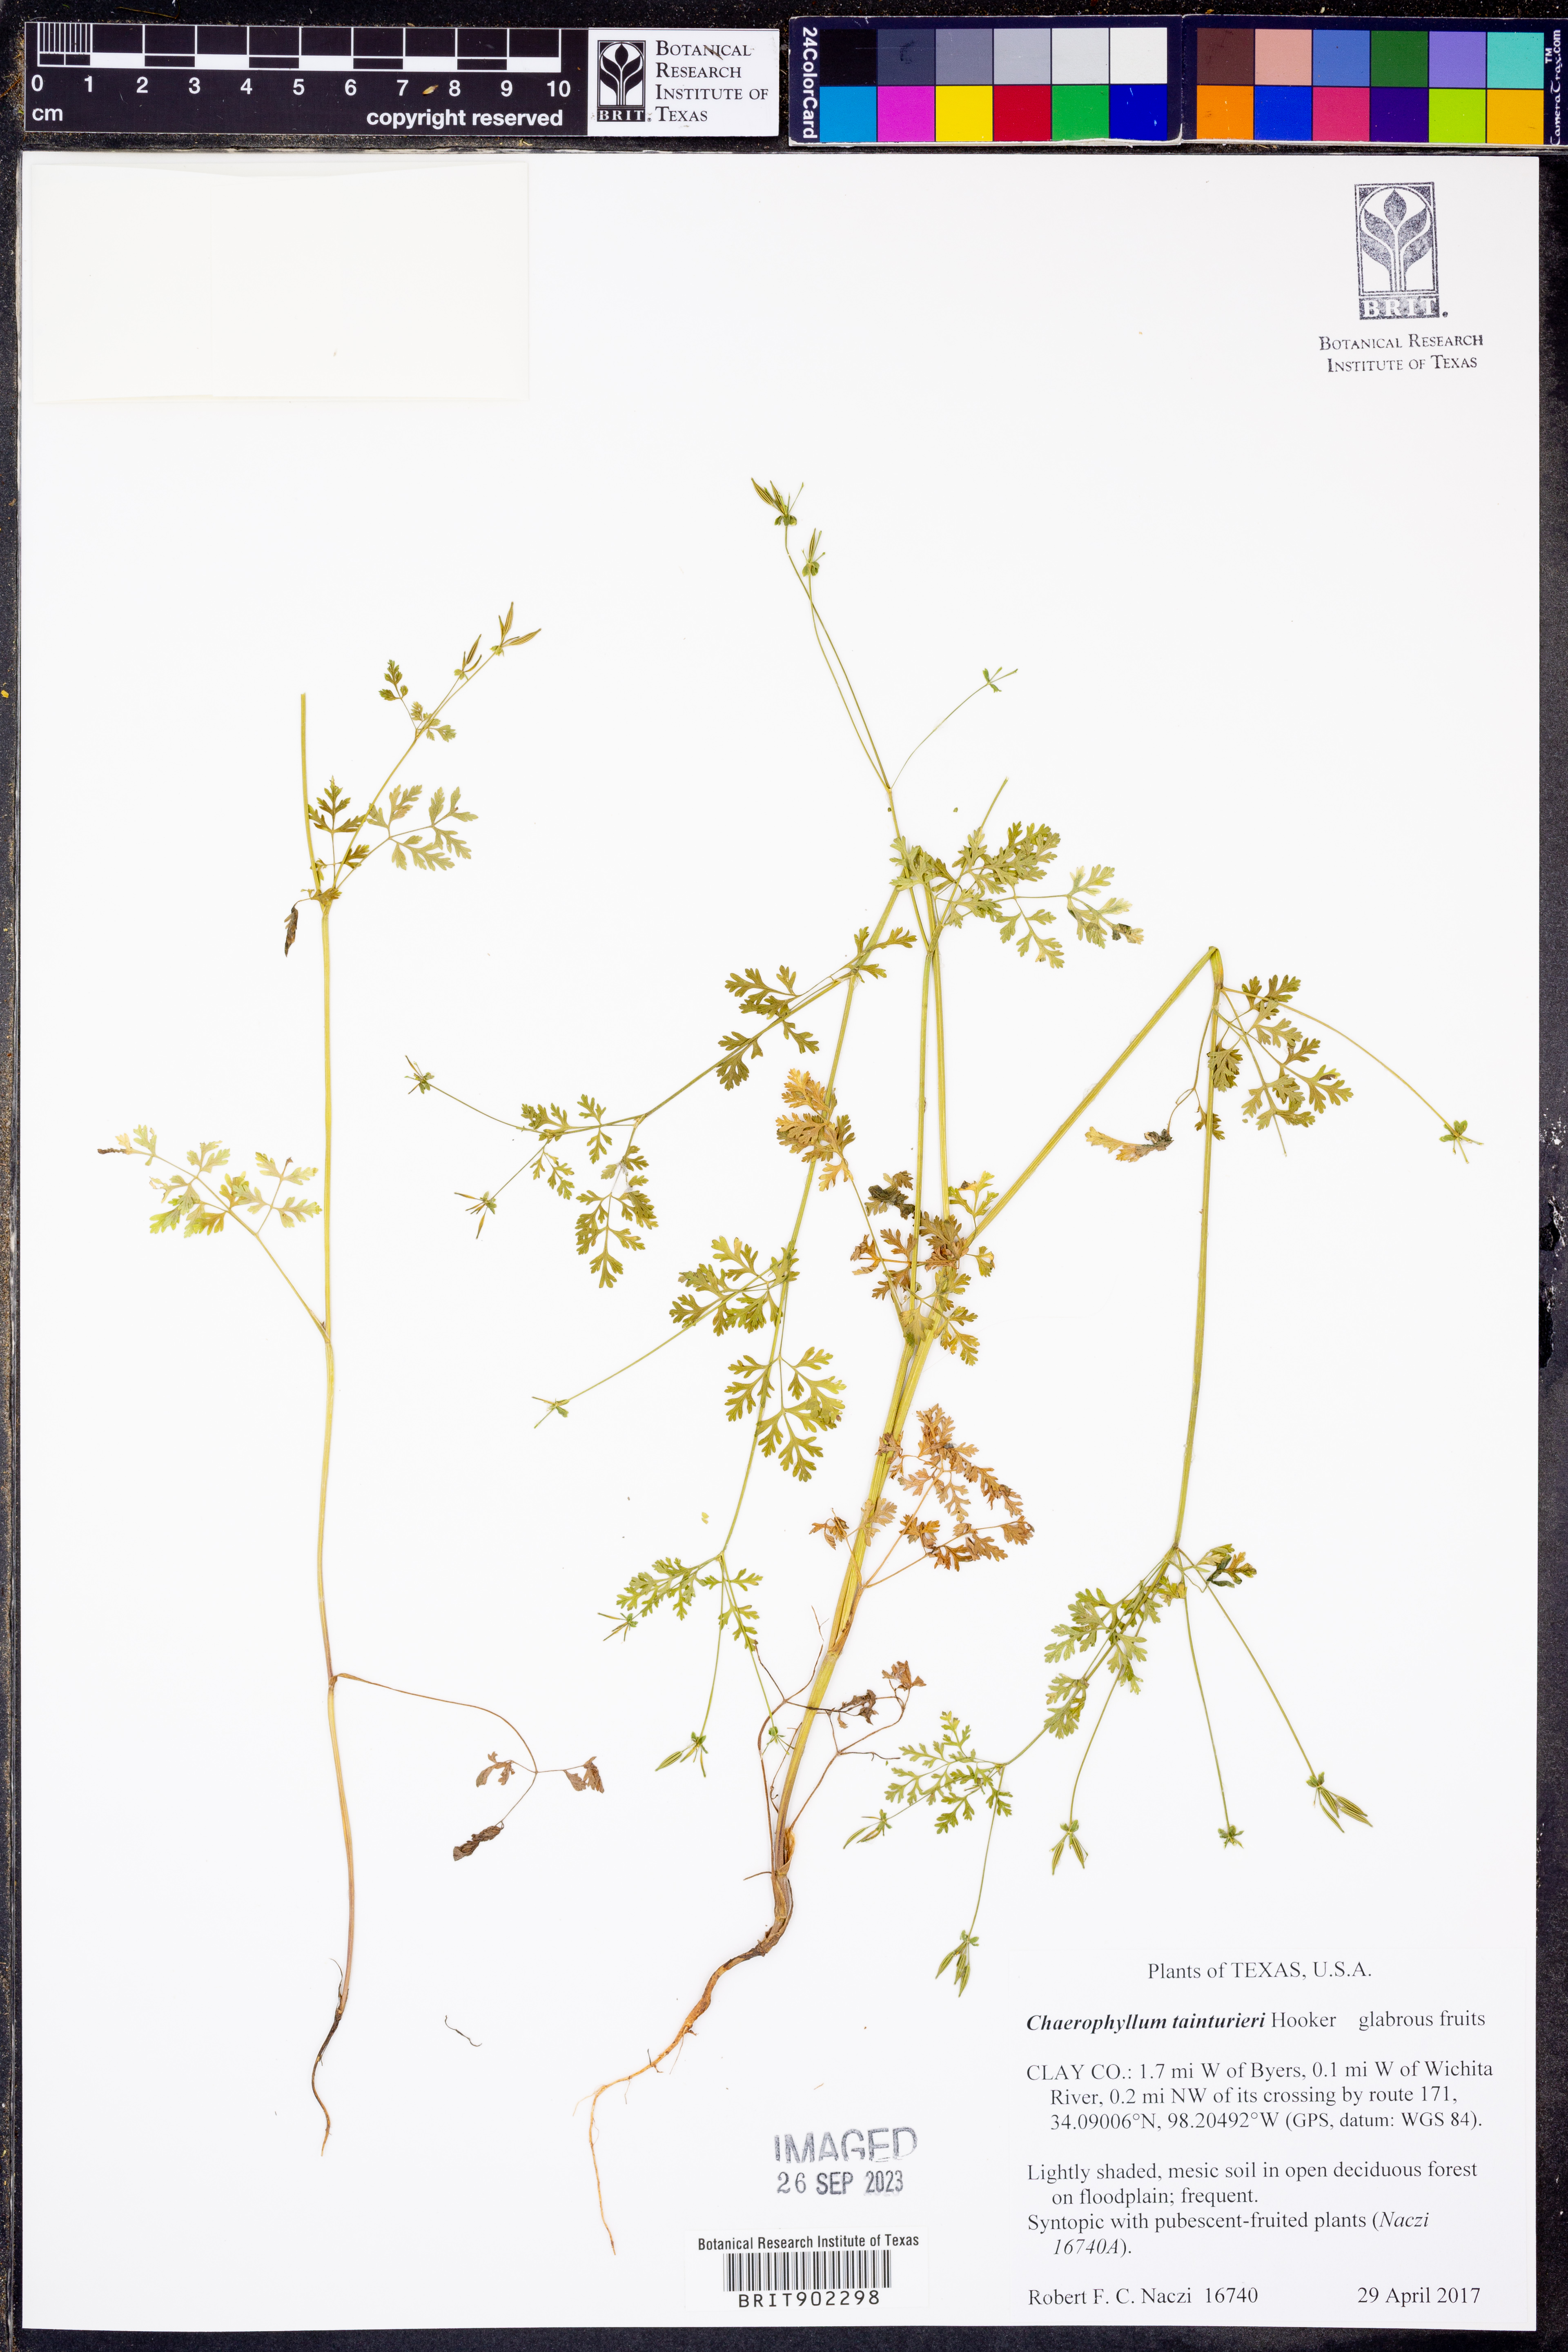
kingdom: Plantae
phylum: Tracheophyta
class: Magnoliopsida
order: Apiales
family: Apiaceae
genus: Chaerophyllum
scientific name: Chaerophyllum tainturieri
